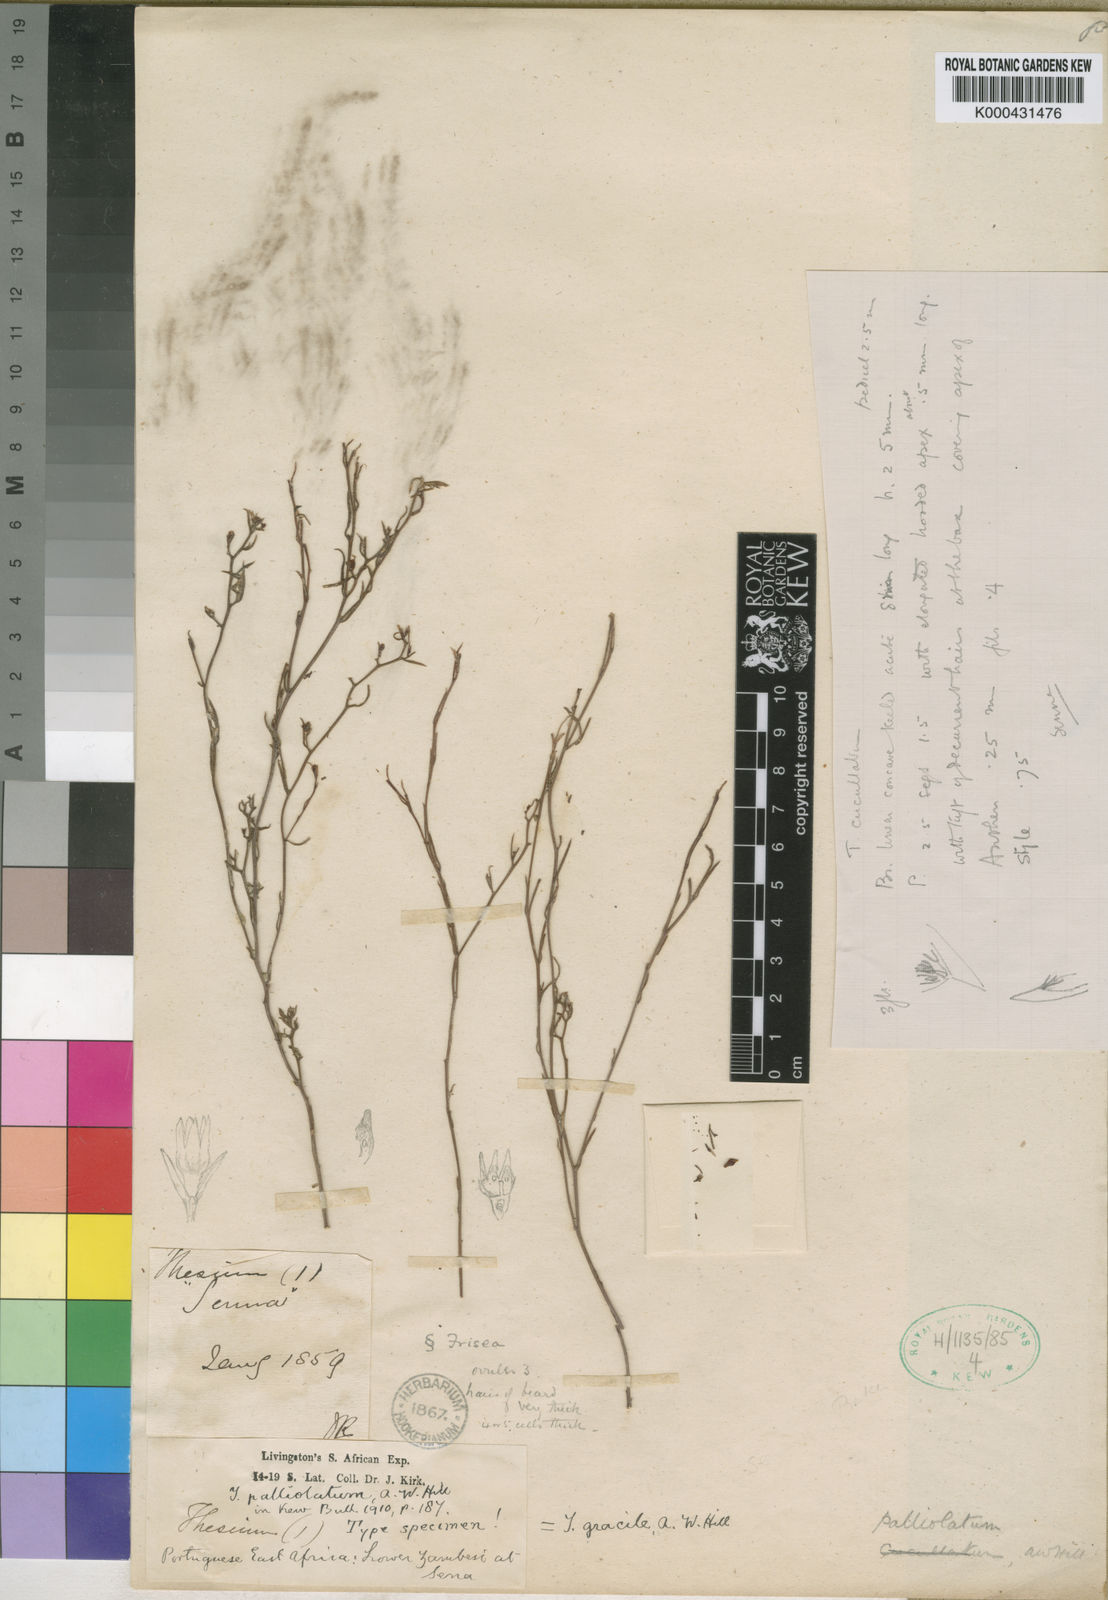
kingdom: Plantae
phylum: Tracheophyta
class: Magnoliopsida
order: Santalales
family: Thesiaceae
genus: Thesium
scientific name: Thesium gracile
